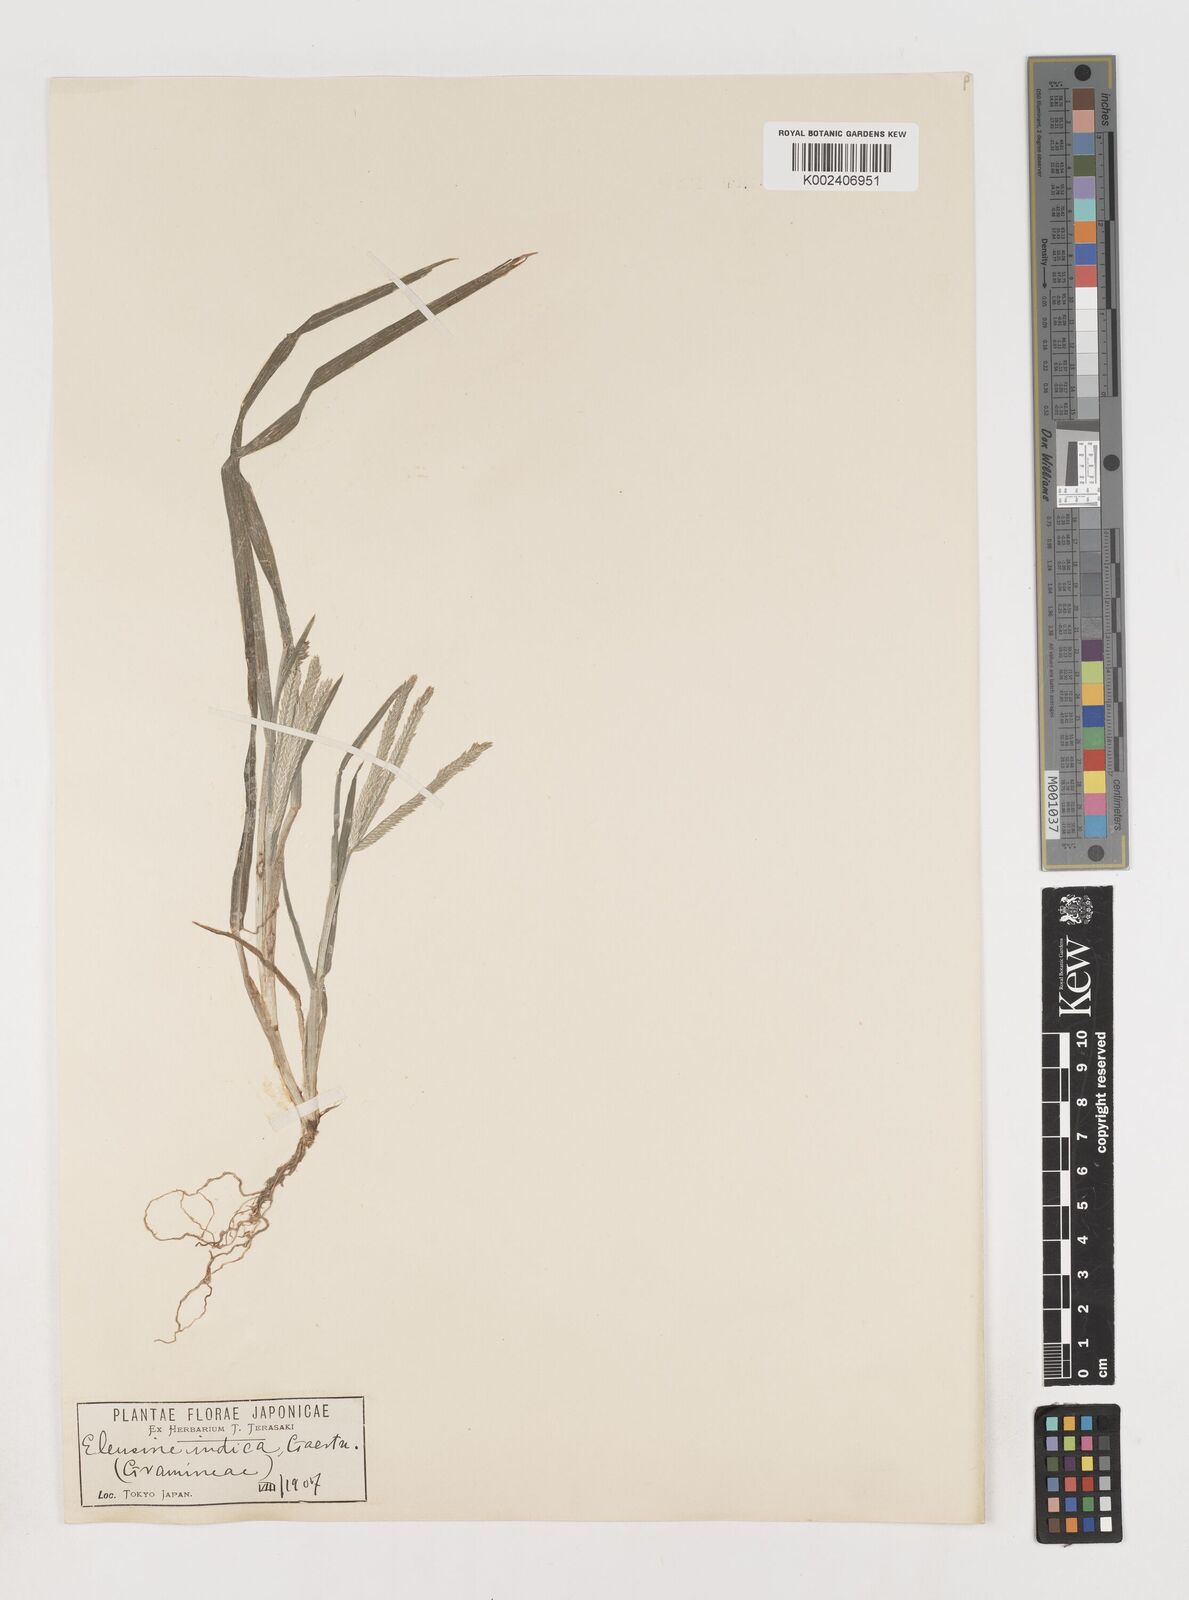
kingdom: Plantae
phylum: Tracheophyta
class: Liliopsida
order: Poales
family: Poaceae
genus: Eleusine
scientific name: Eleusine indica
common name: Yard-grass
